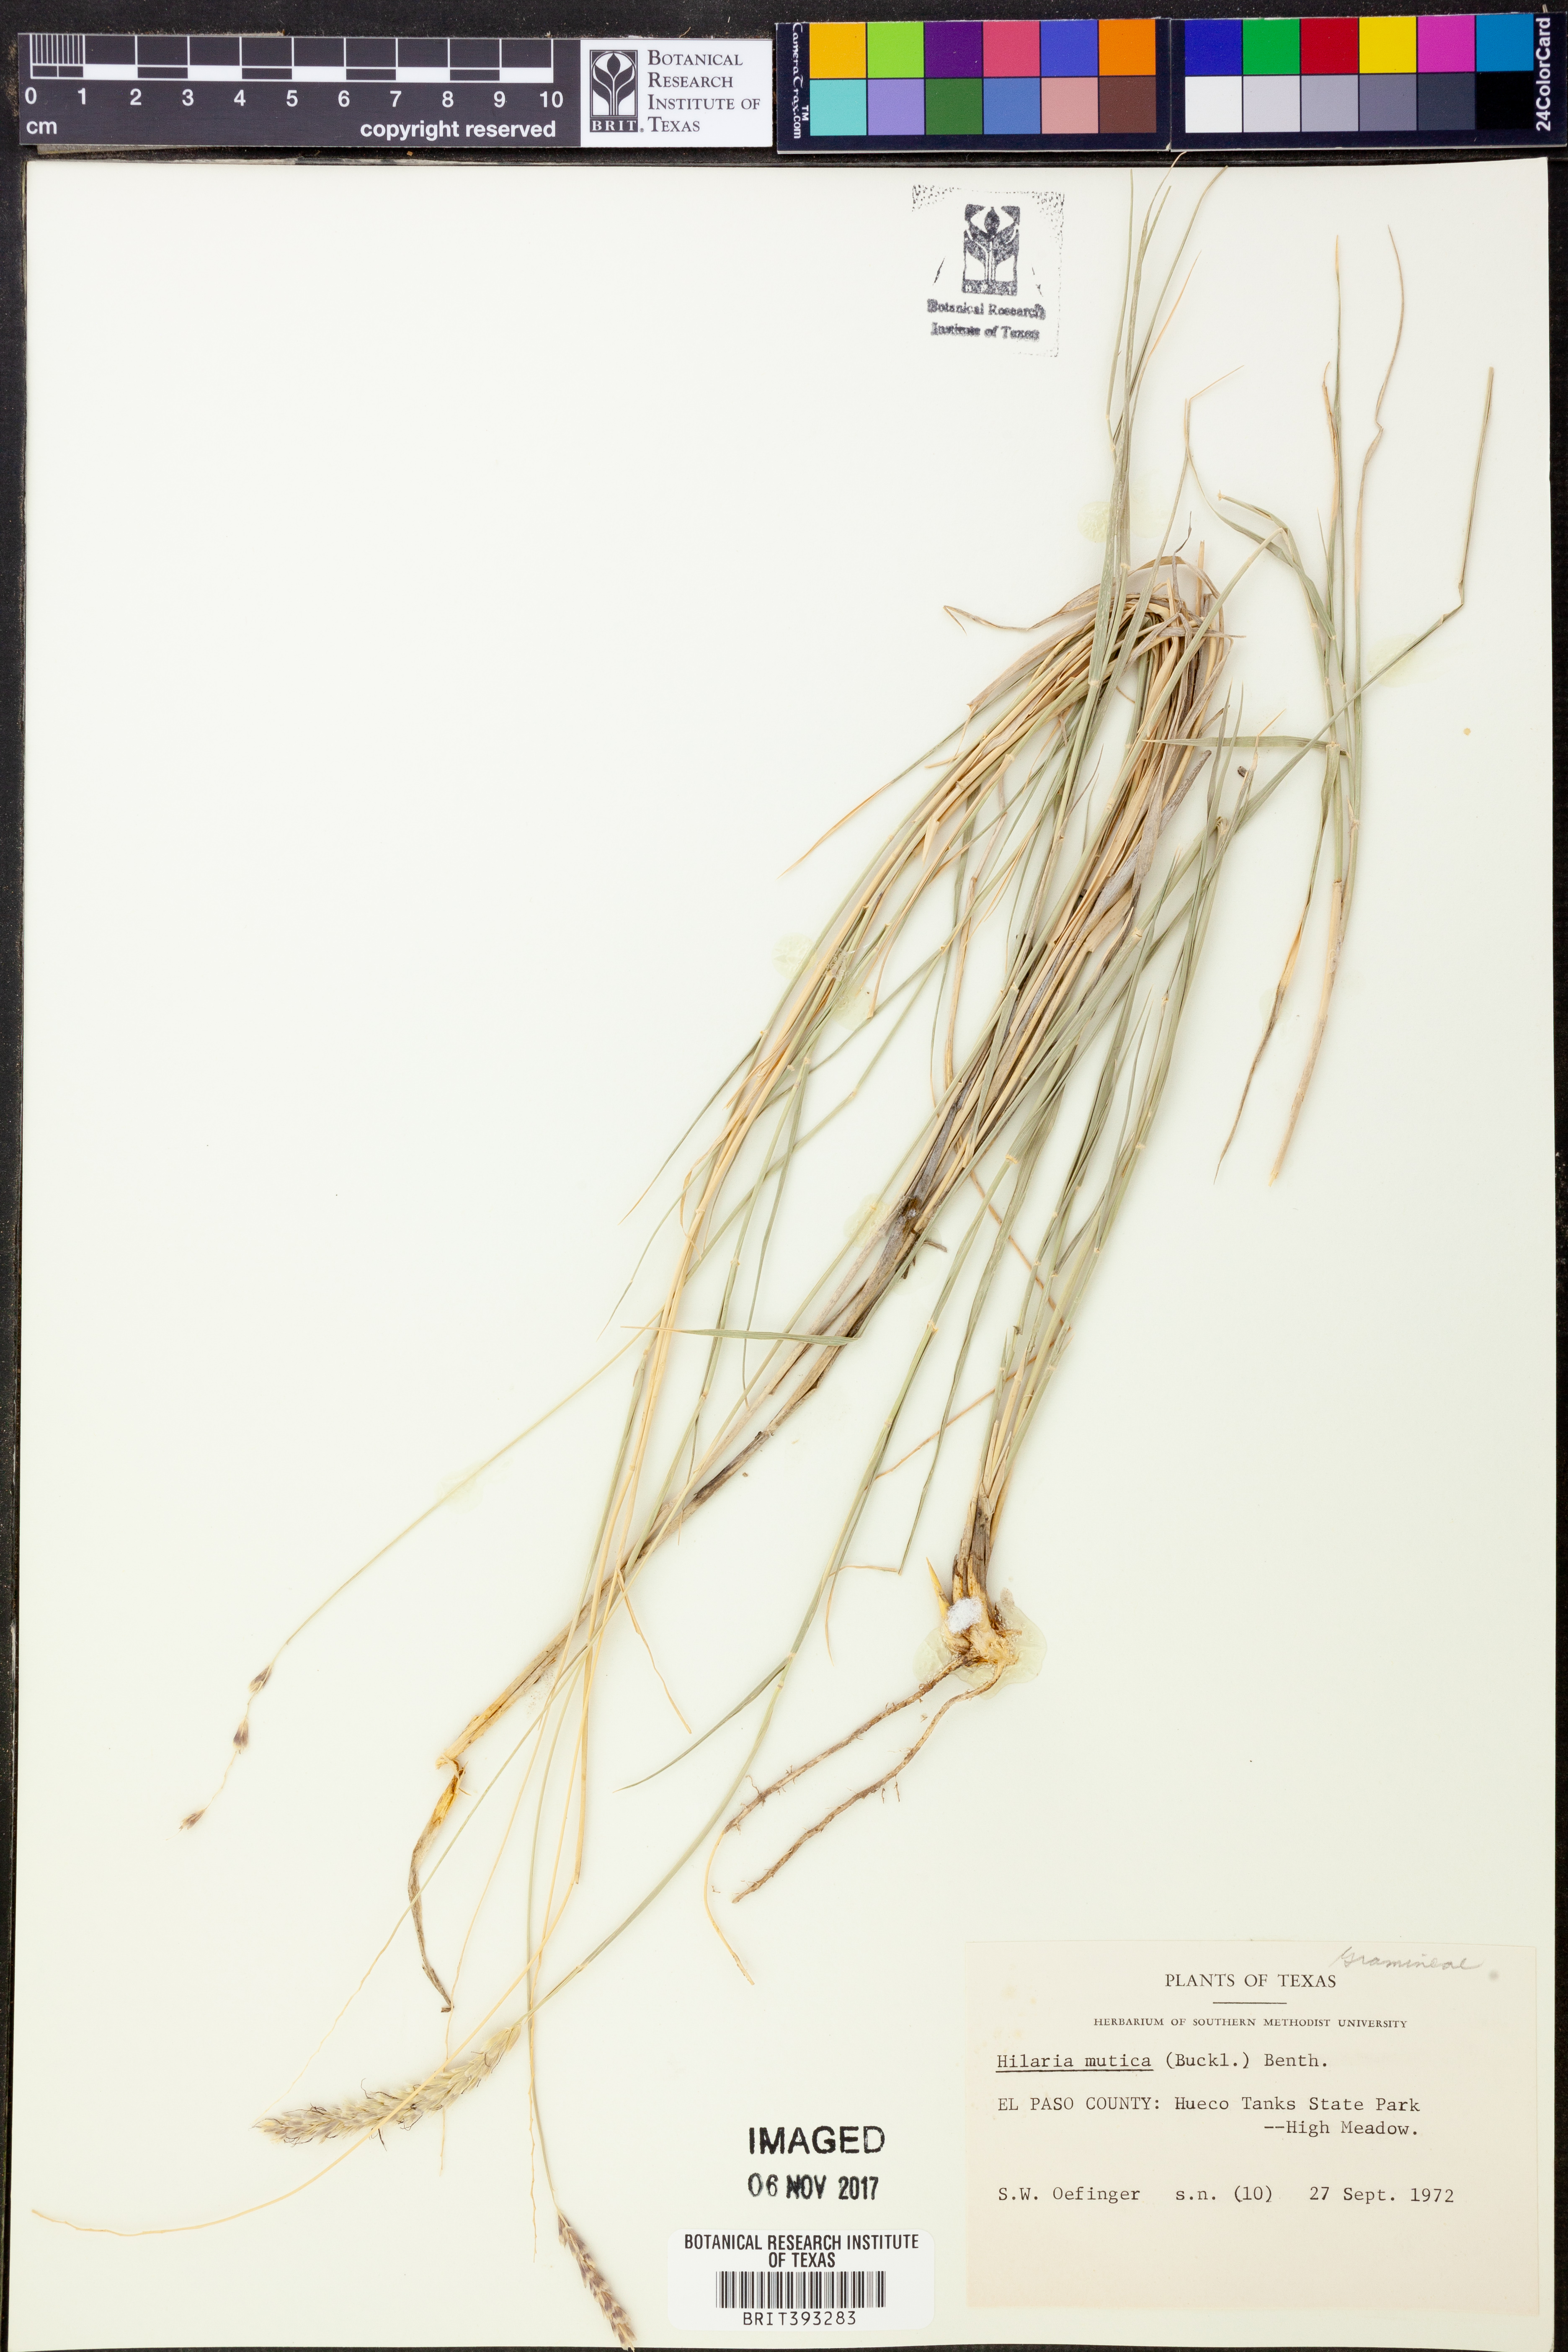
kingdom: Plantae
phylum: Tracheophyta
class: Liliopsida
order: Poales
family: Poaceae
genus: Hilaria
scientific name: Hilaria mutica
